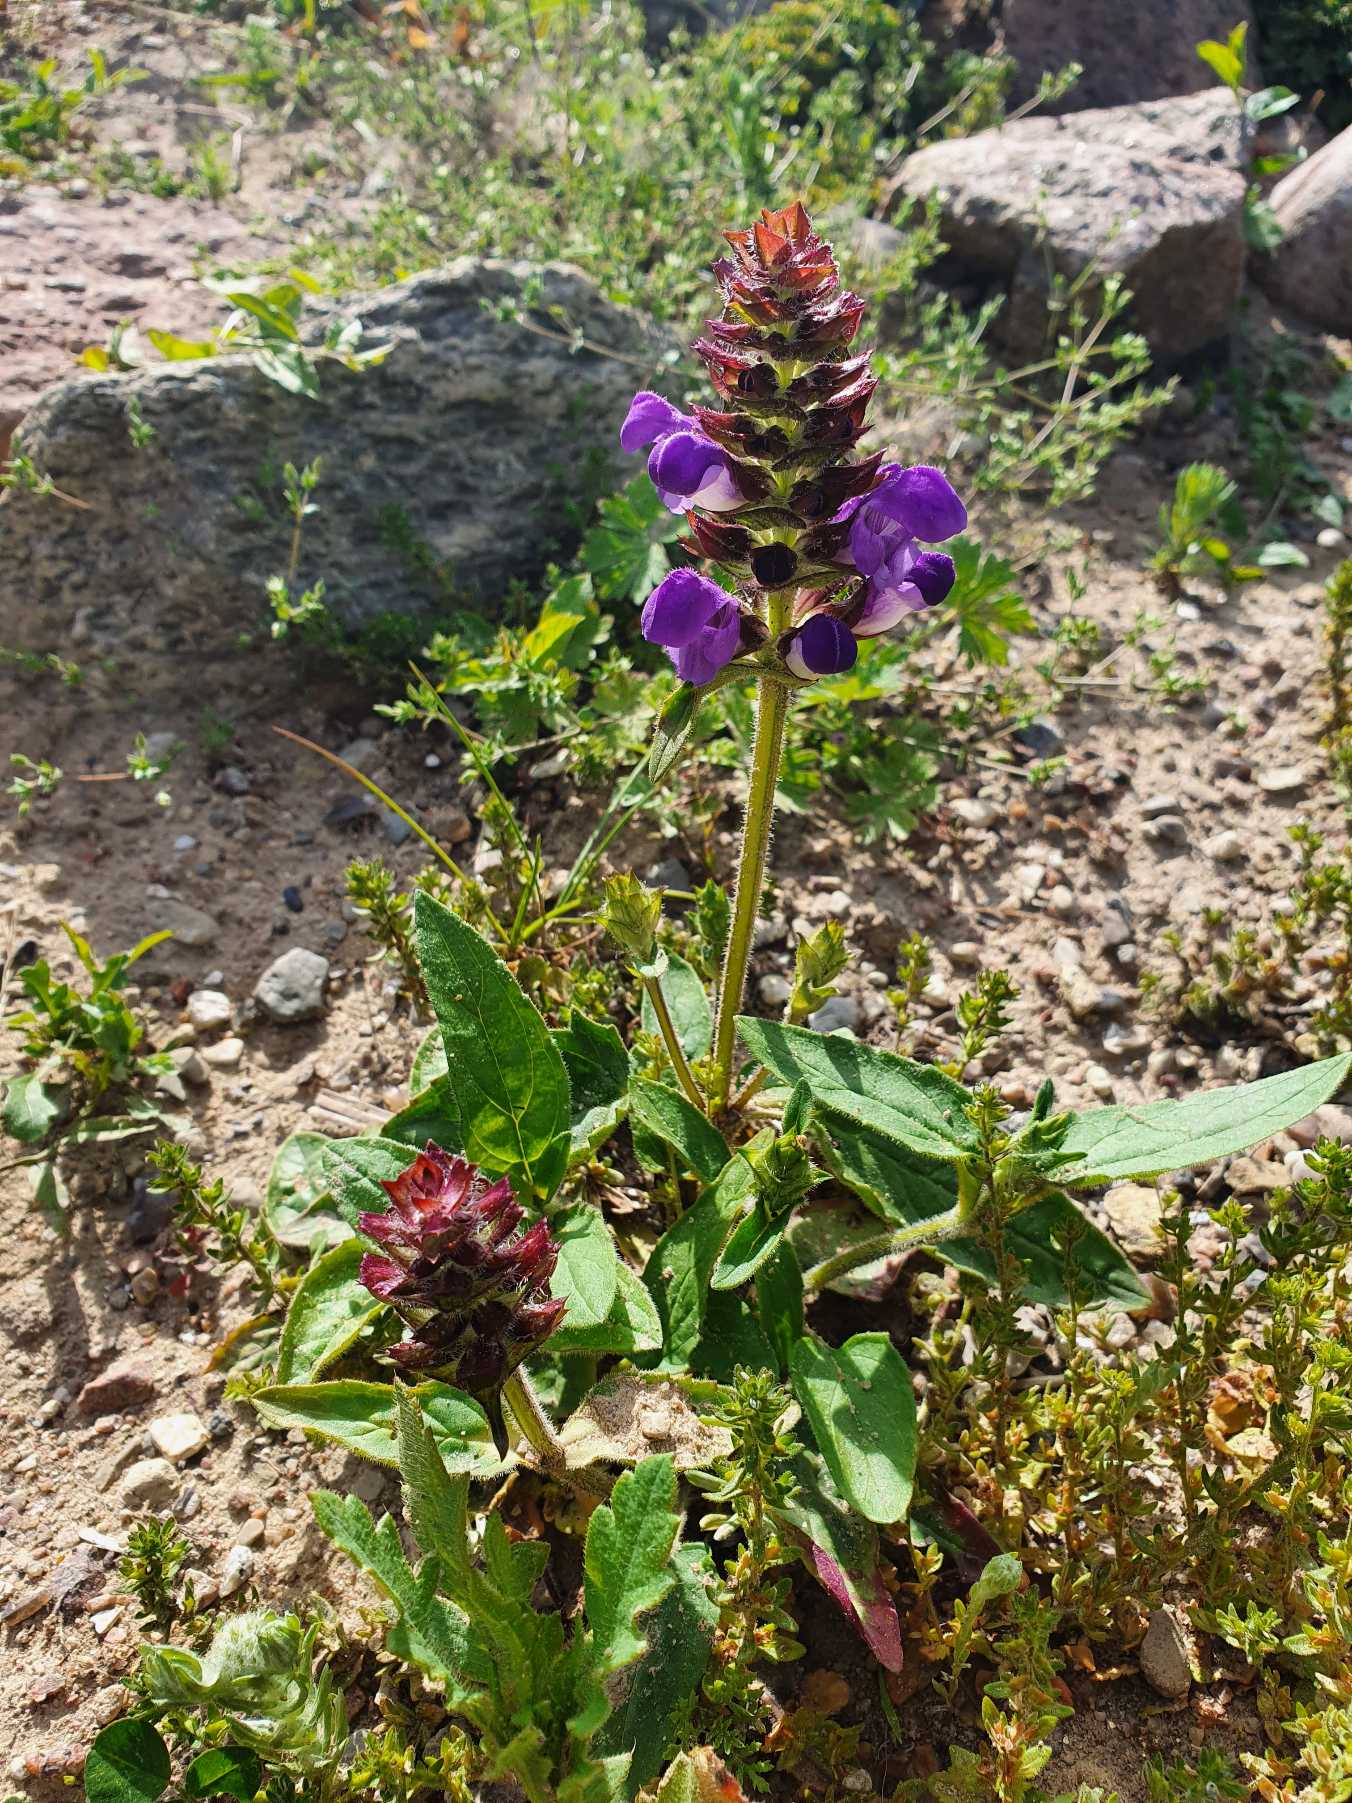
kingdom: Plantae
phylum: Tracheophyta
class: Magnoliopsida
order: Lamiales
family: Lamiaceae
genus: Prunella
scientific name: Prunella grandiflora
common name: Storblomstret brunelle
